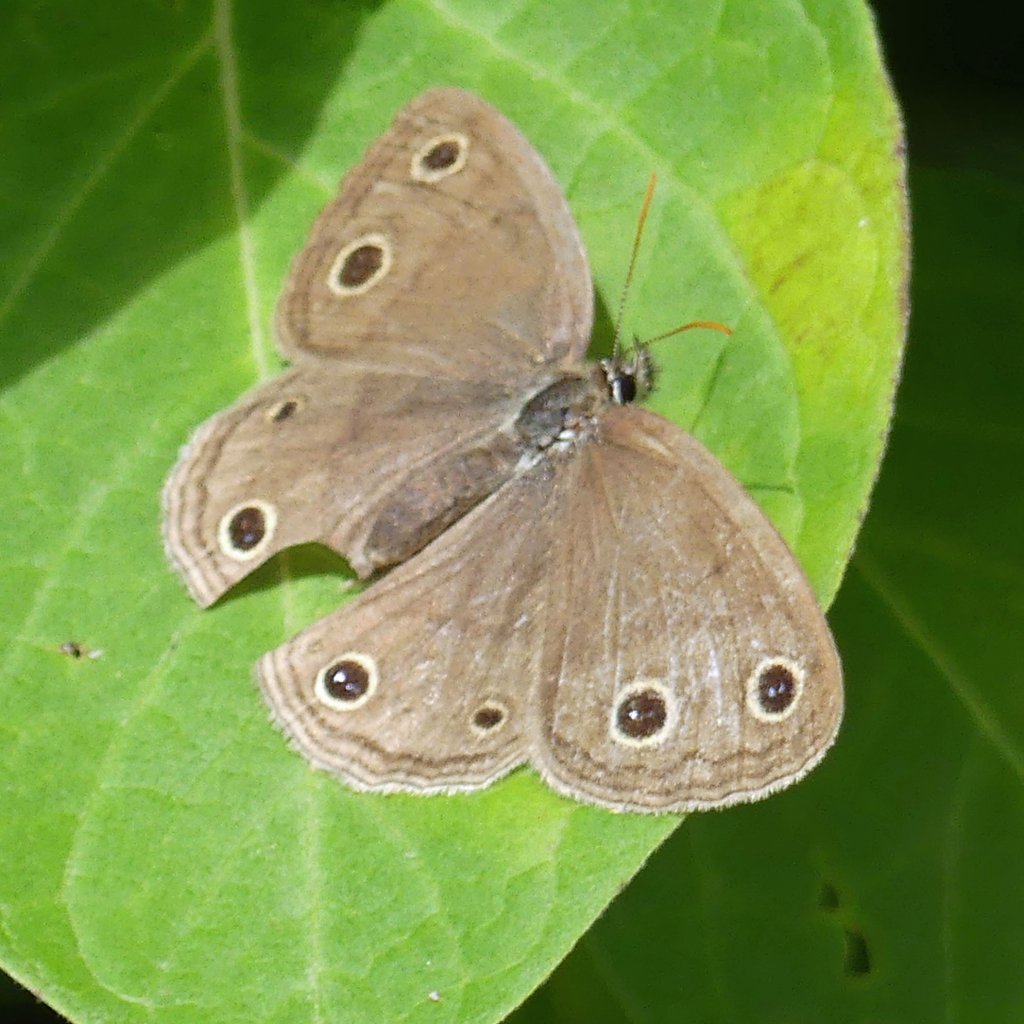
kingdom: Animalia
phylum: Arthropoda
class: Insecta
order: Lepidoptera
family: Nymphalidae
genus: Euptychia
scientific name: Euptychia cymela
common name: Little Wood Satyr
